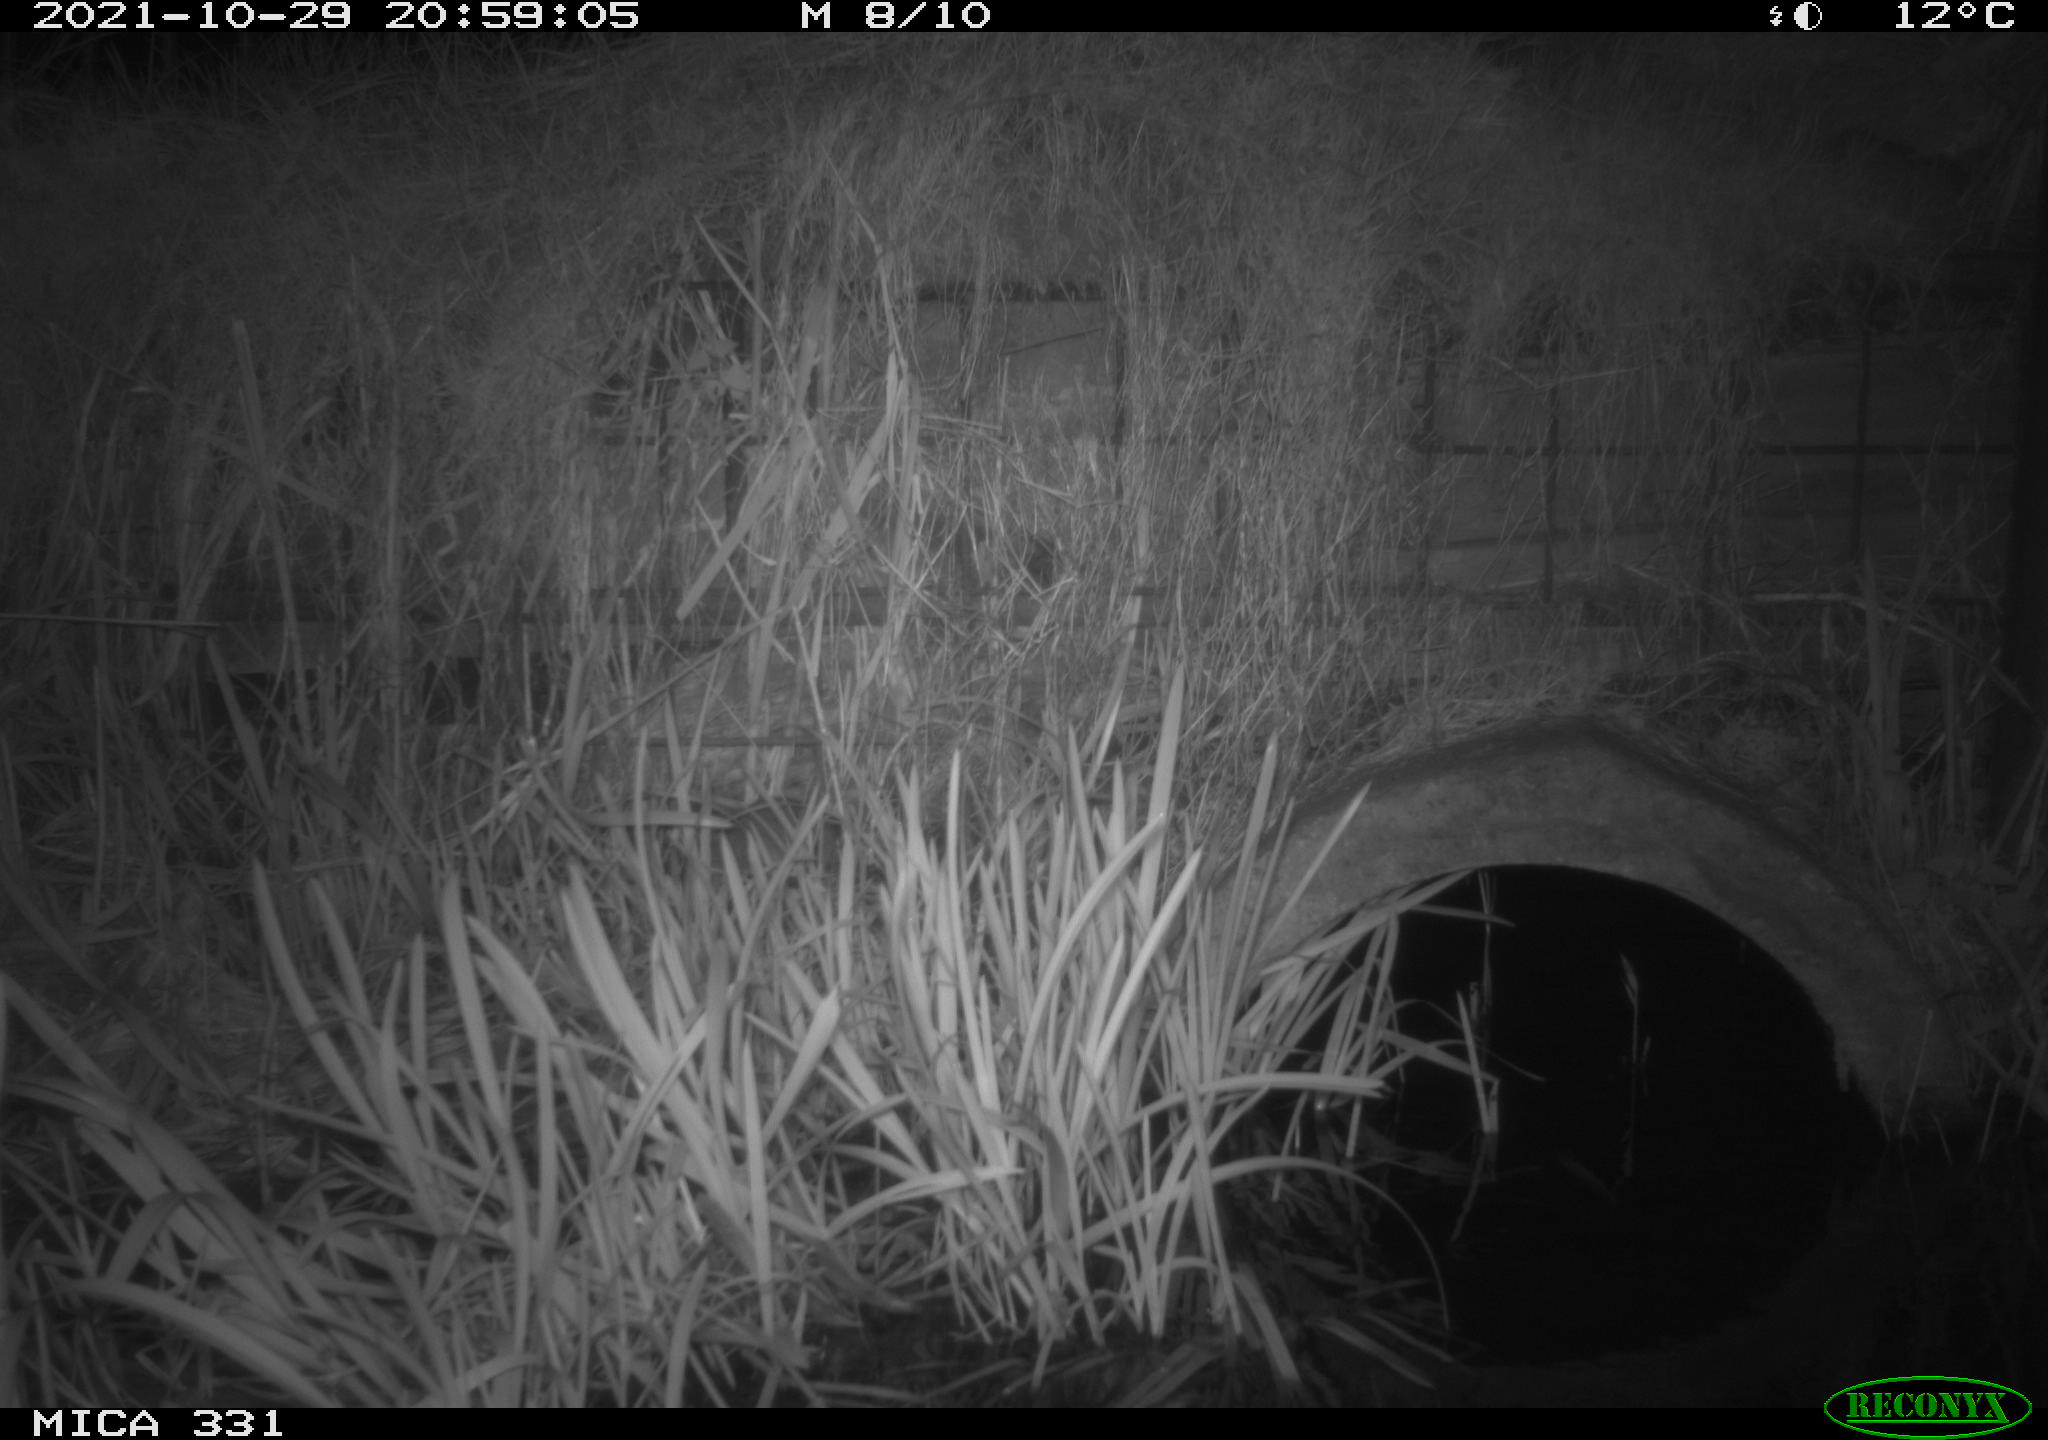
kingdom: Animalia
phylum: Chordata
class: Mammalia
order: Rodentia
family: Muridae
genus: Rattus
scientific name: Rattus norvegicus
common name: Brown rat
